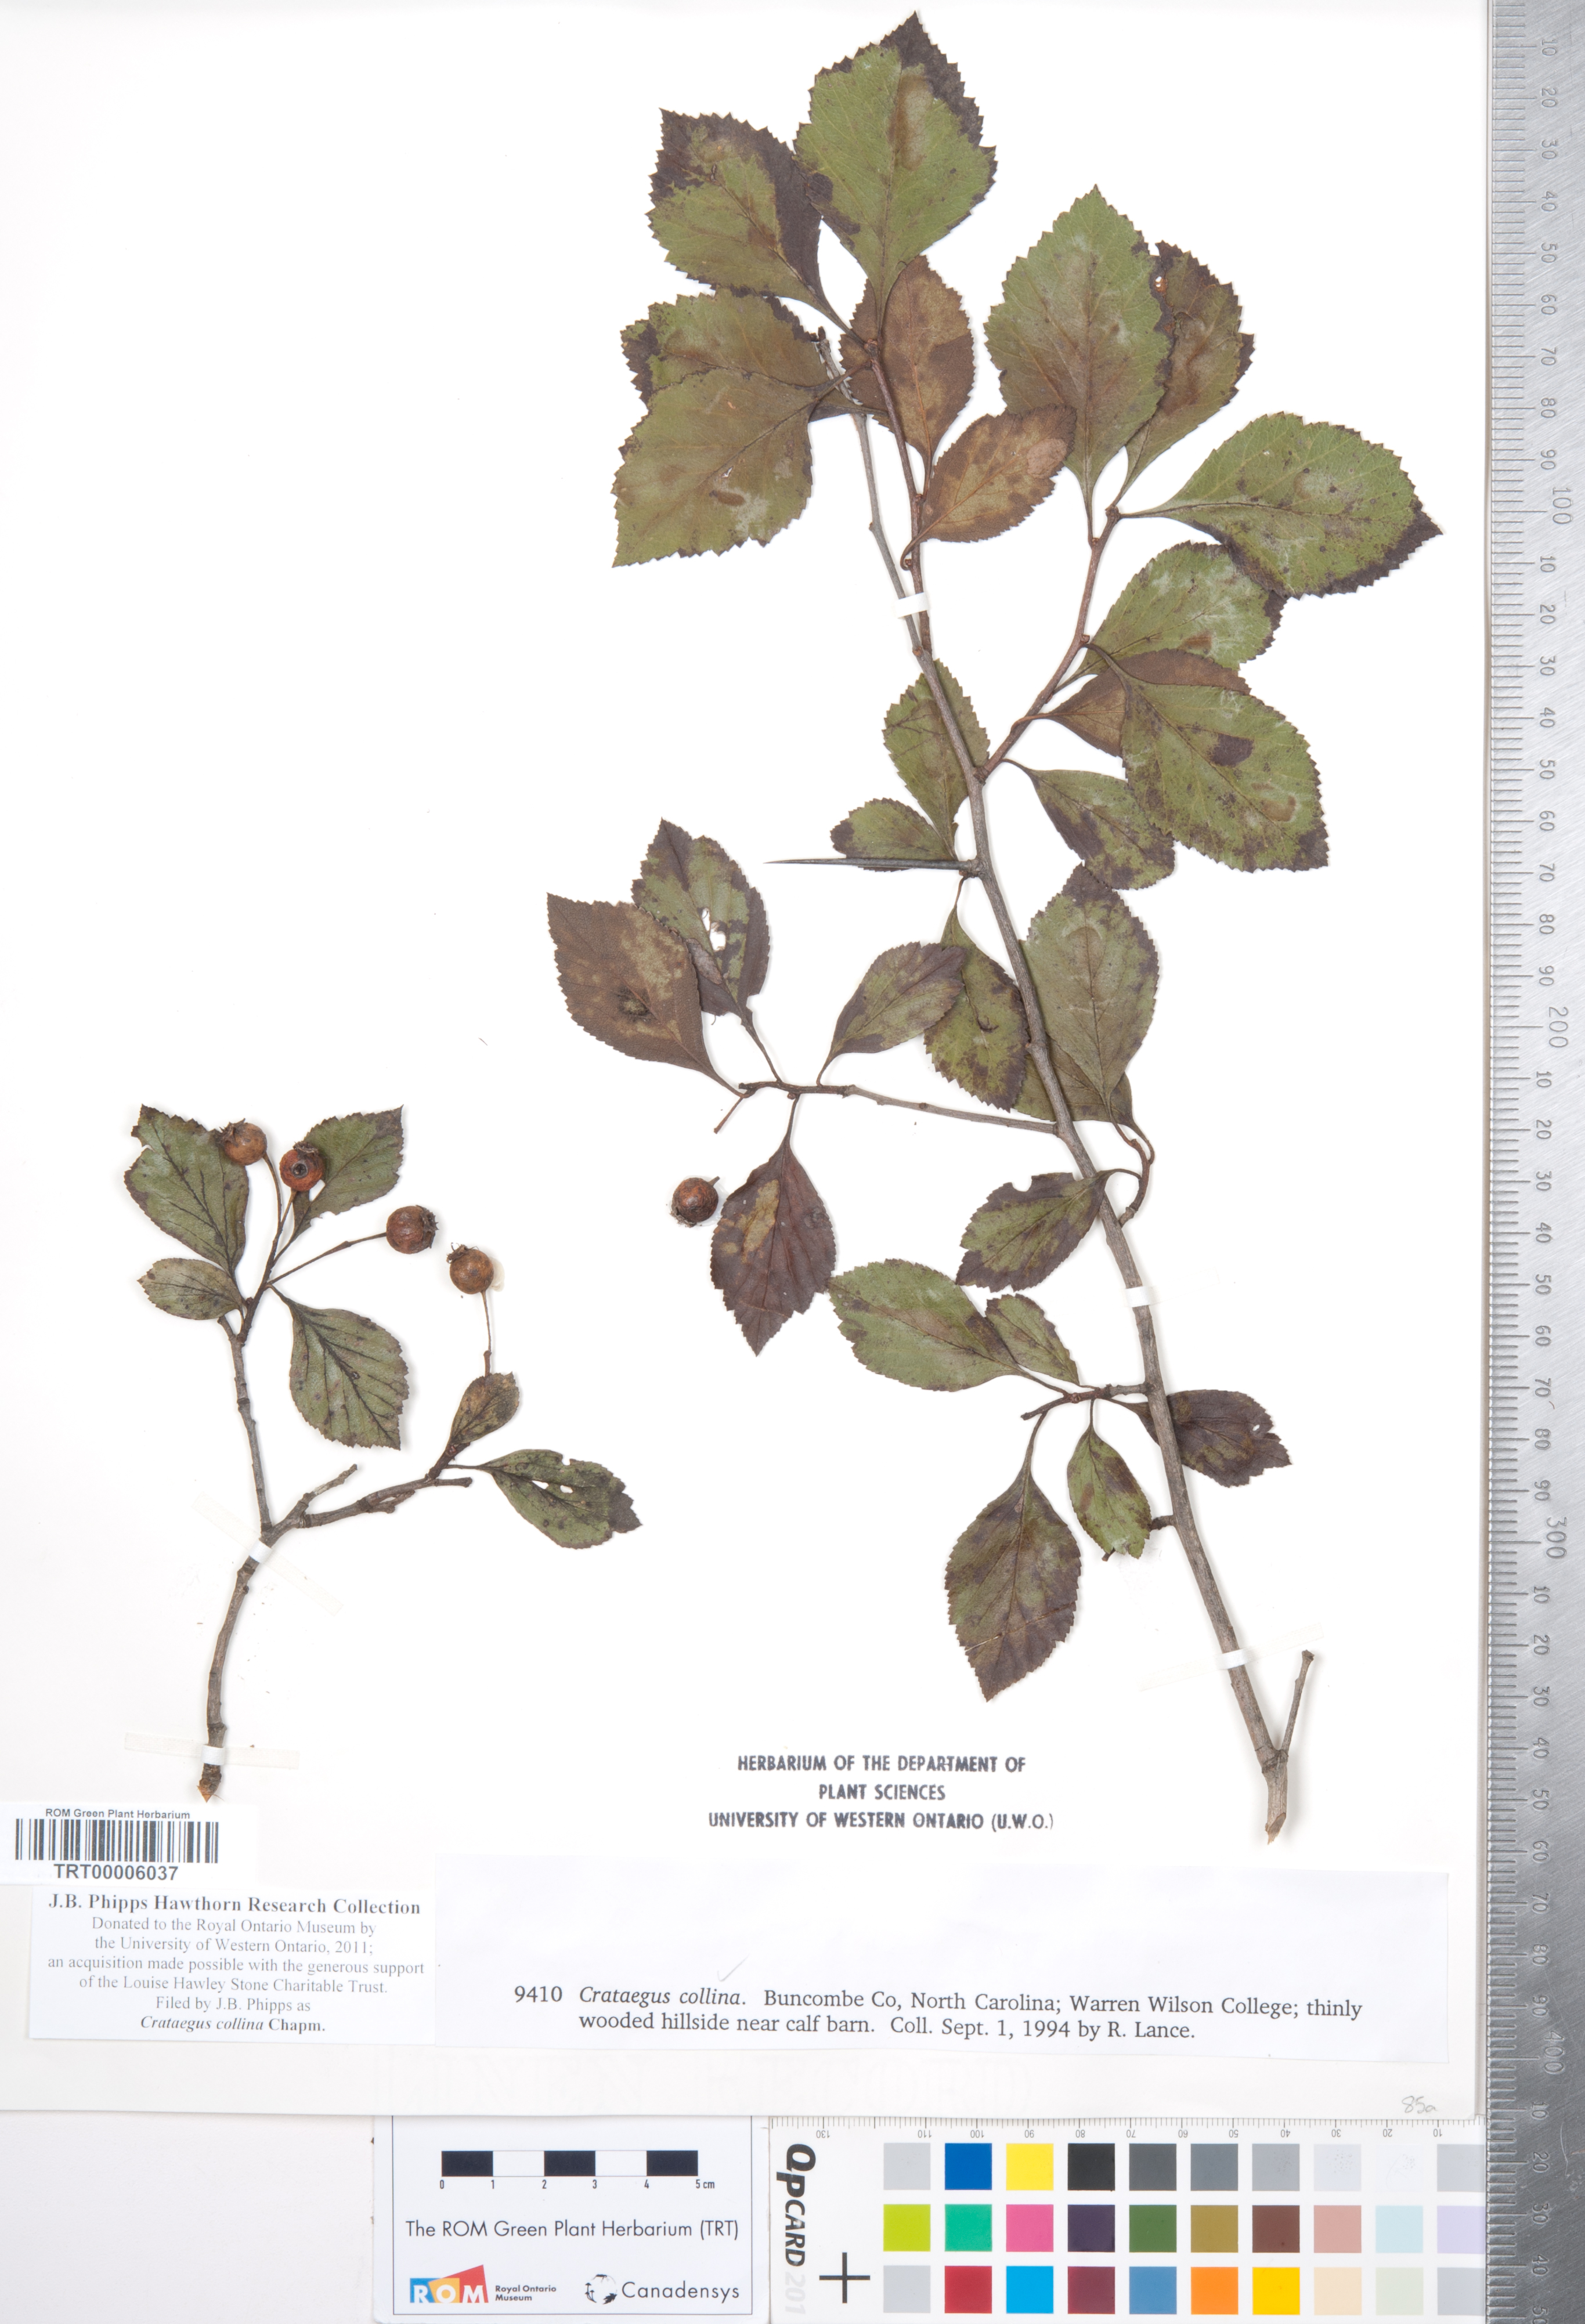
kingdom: Plantae
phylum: Tracheophyta
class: Magnoliopsida
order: Rosales
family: Rosaceae
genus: Crataegus
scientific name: Crataegus collina
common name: Hillside hawthorn
